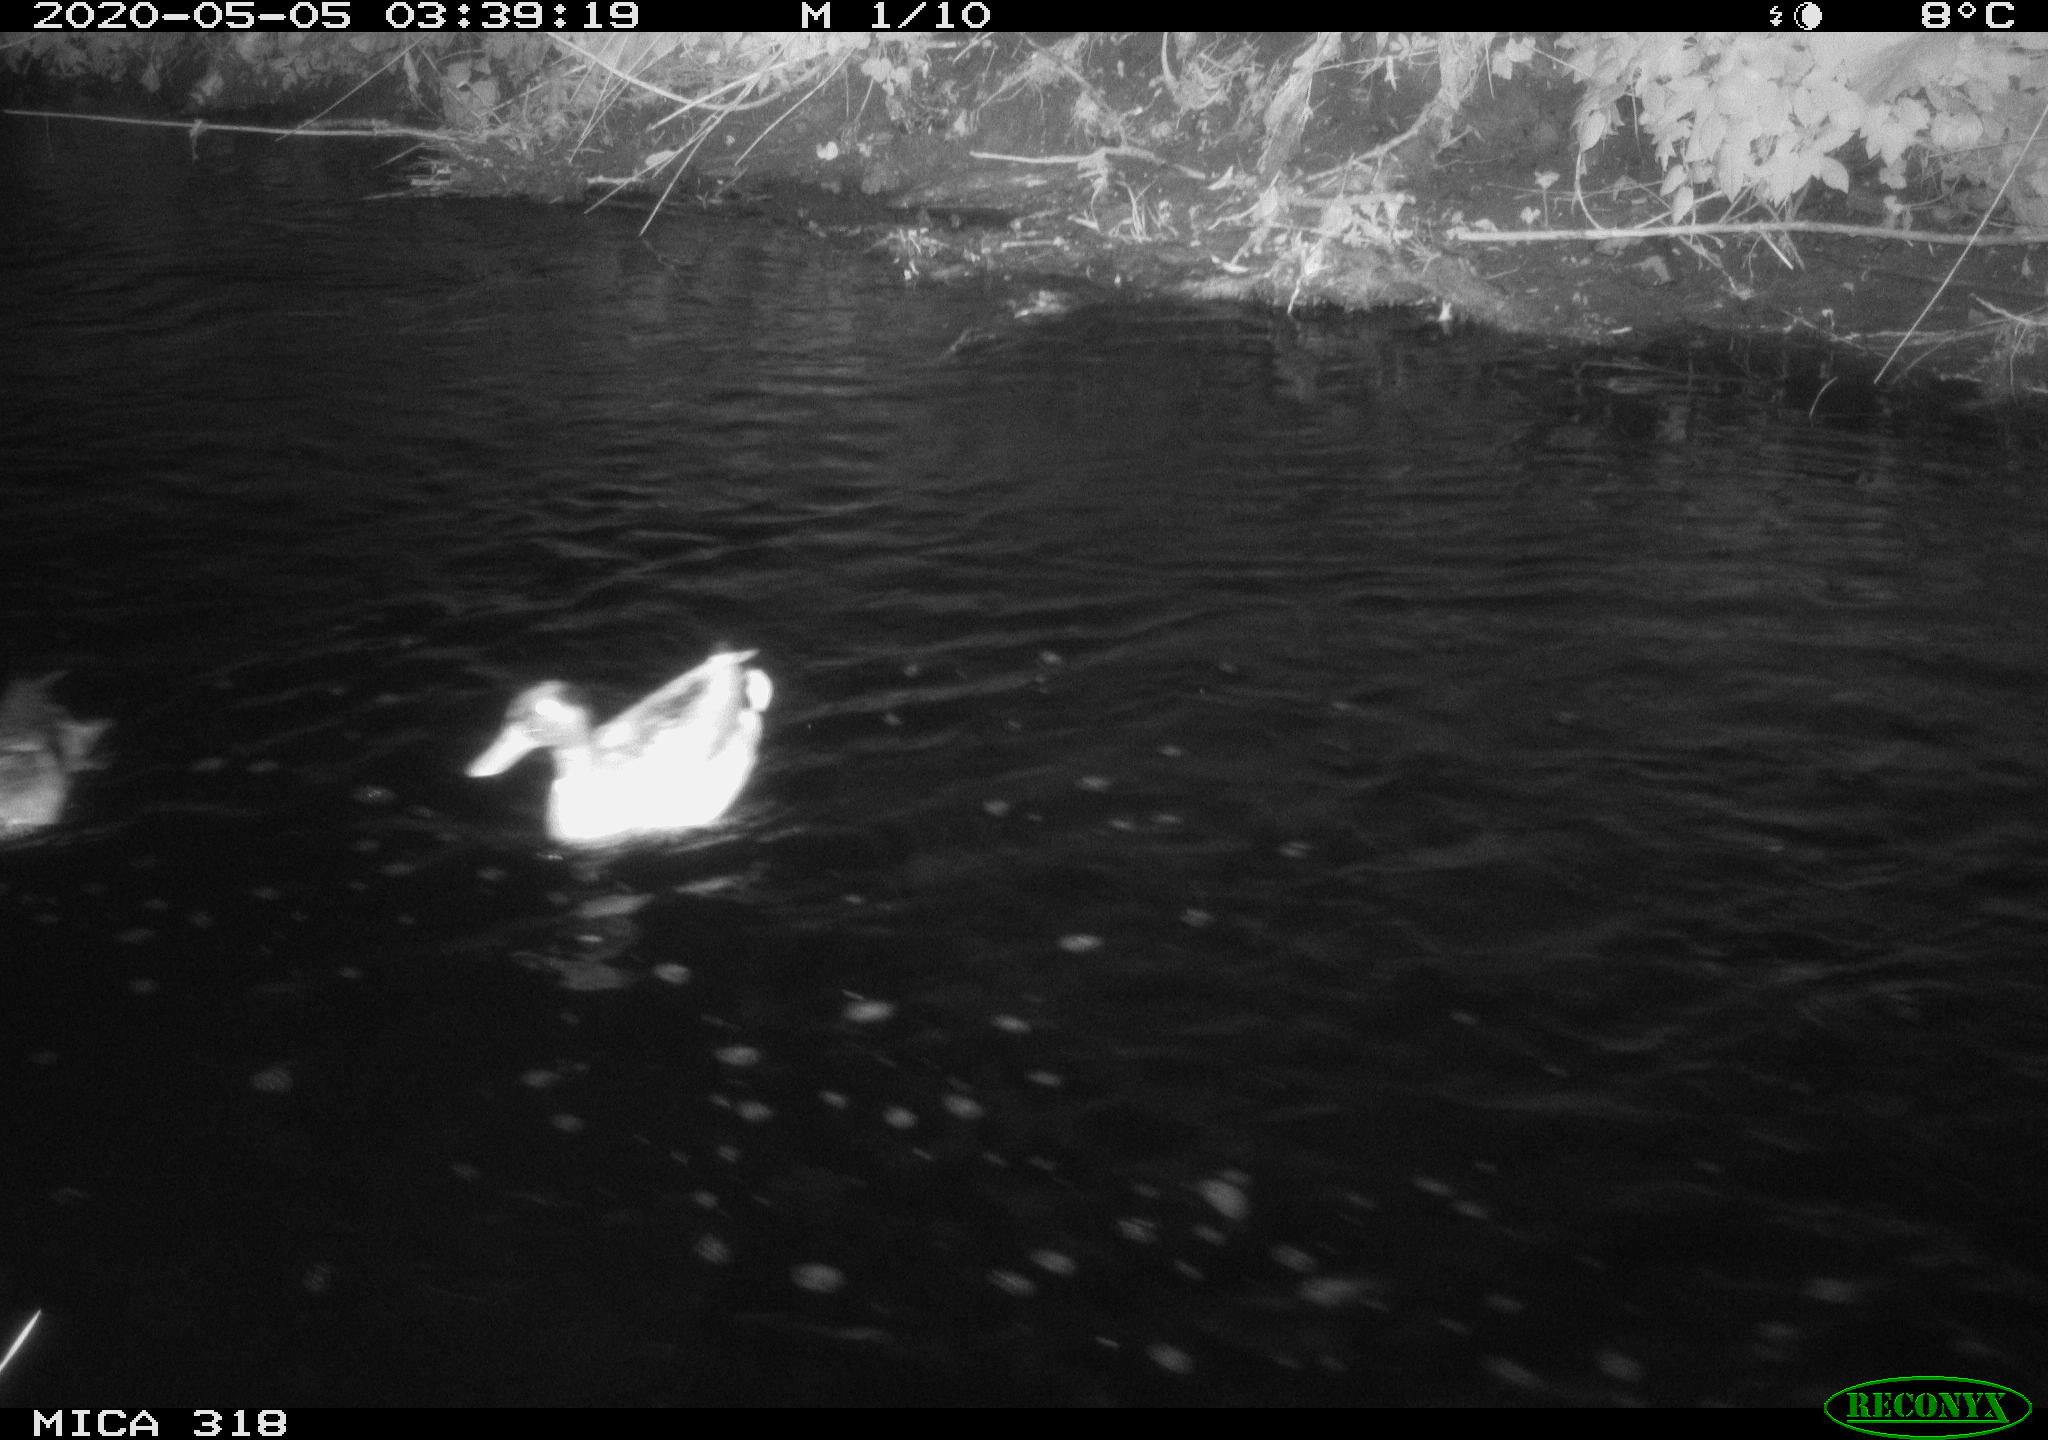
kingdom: Animalia
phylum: Chordata
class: Aves
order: Anseriformes
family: Anatidae
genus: Anas
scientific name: Anas platyrhynchos
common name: Mallard
